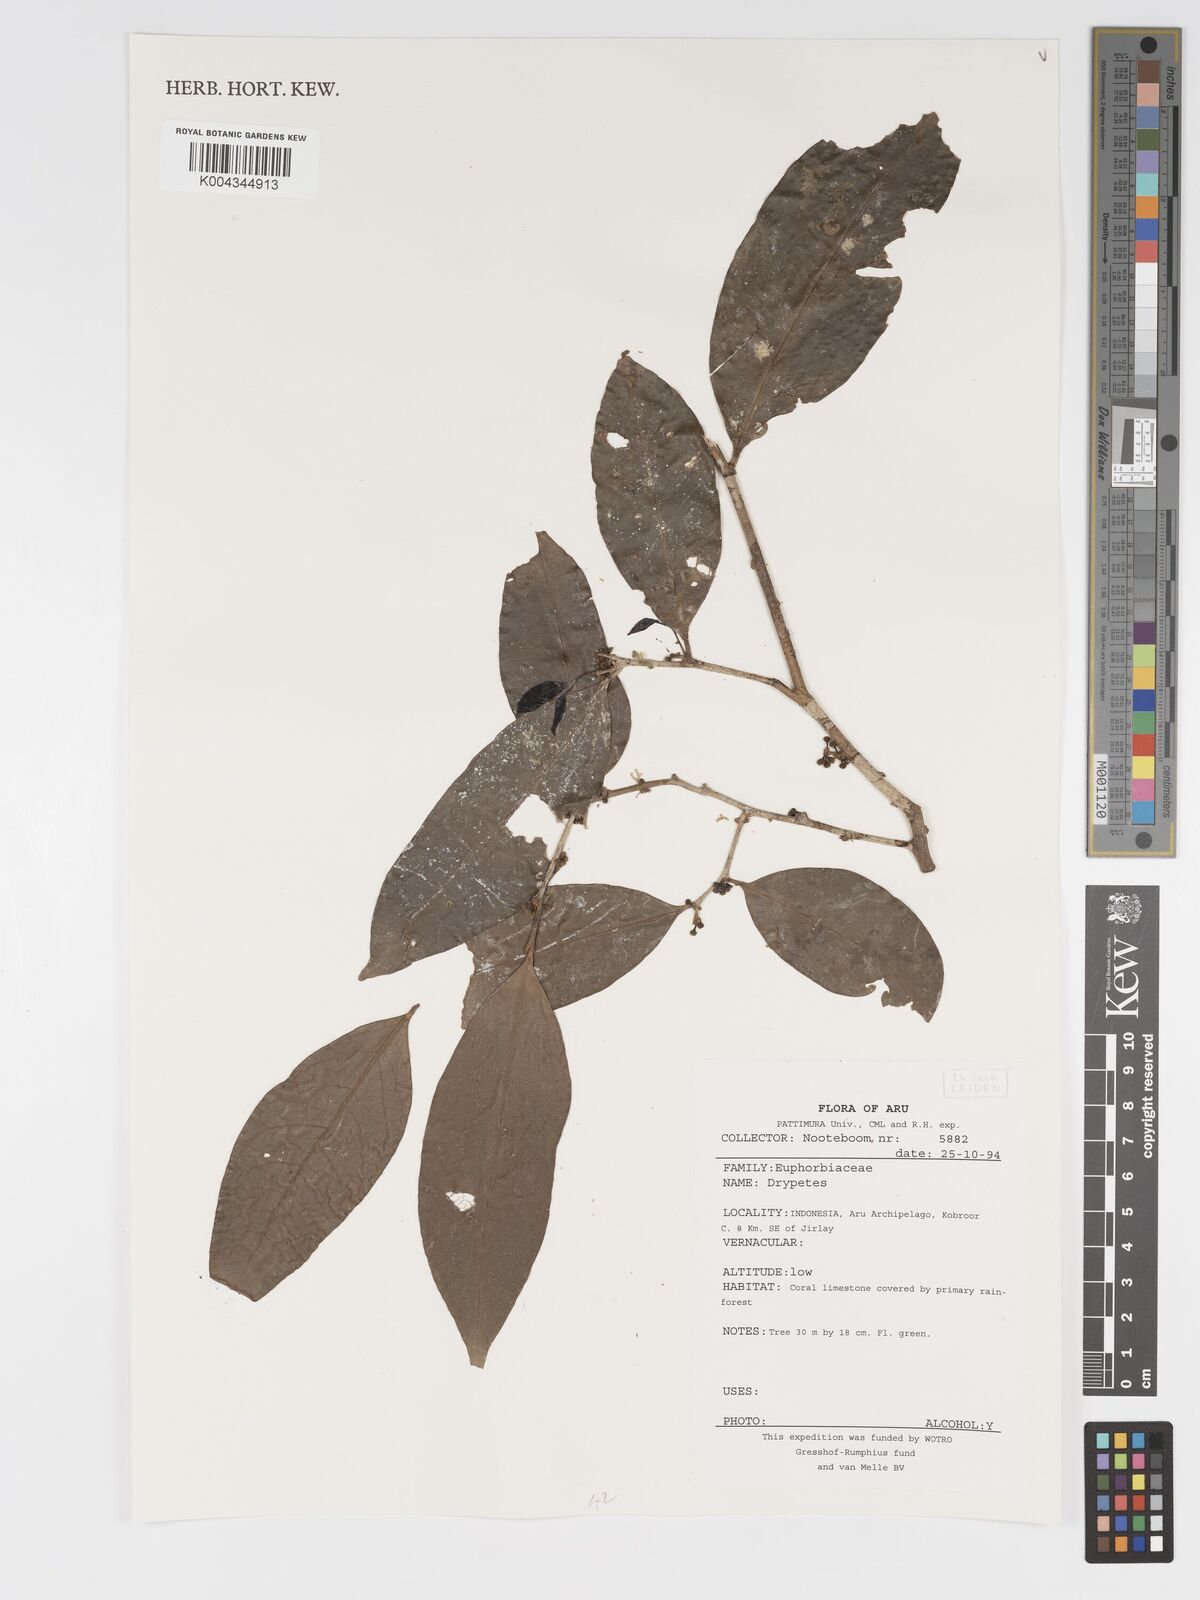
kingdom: Plantae
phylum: Tracheophyta
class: Magnoliopsida
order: Malpighiales
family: Putranjivaceae
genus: Drypetes
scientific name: Drypetes
